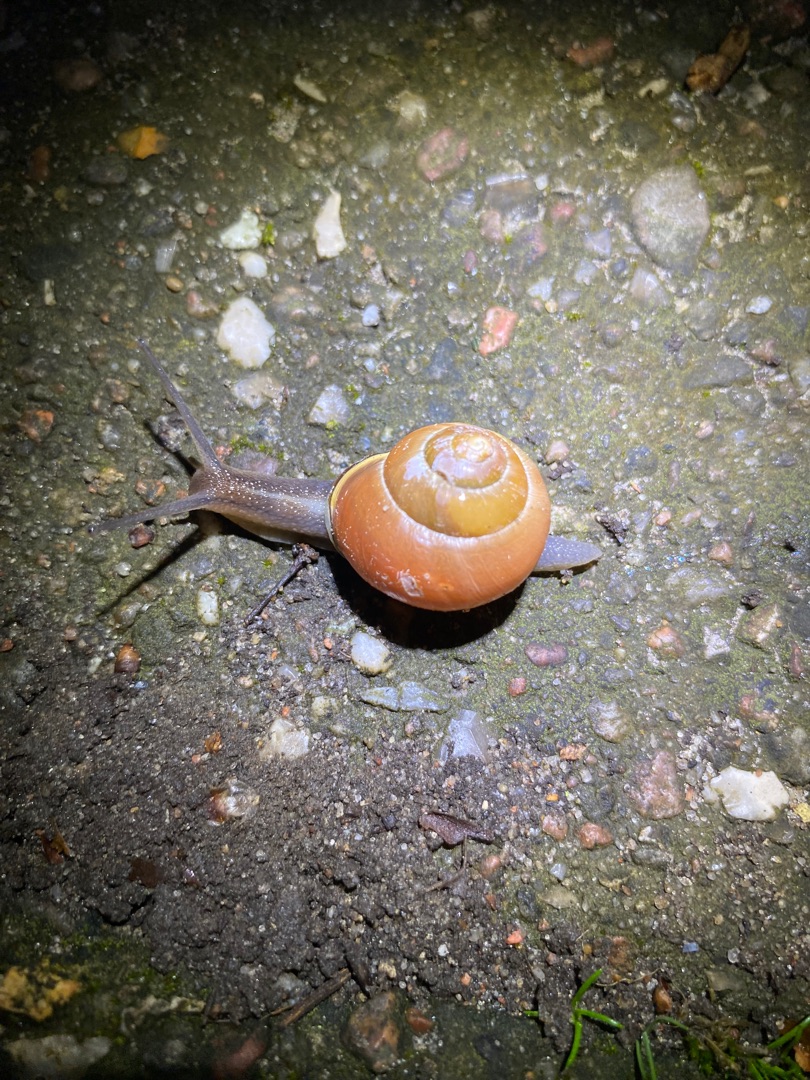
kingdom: Animalia
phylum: Mollusca
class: Gastropoda
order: Stylommatophora
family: Helicidae
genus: Cepaea
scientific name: Cepaea hortensis
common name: Havesnegl
